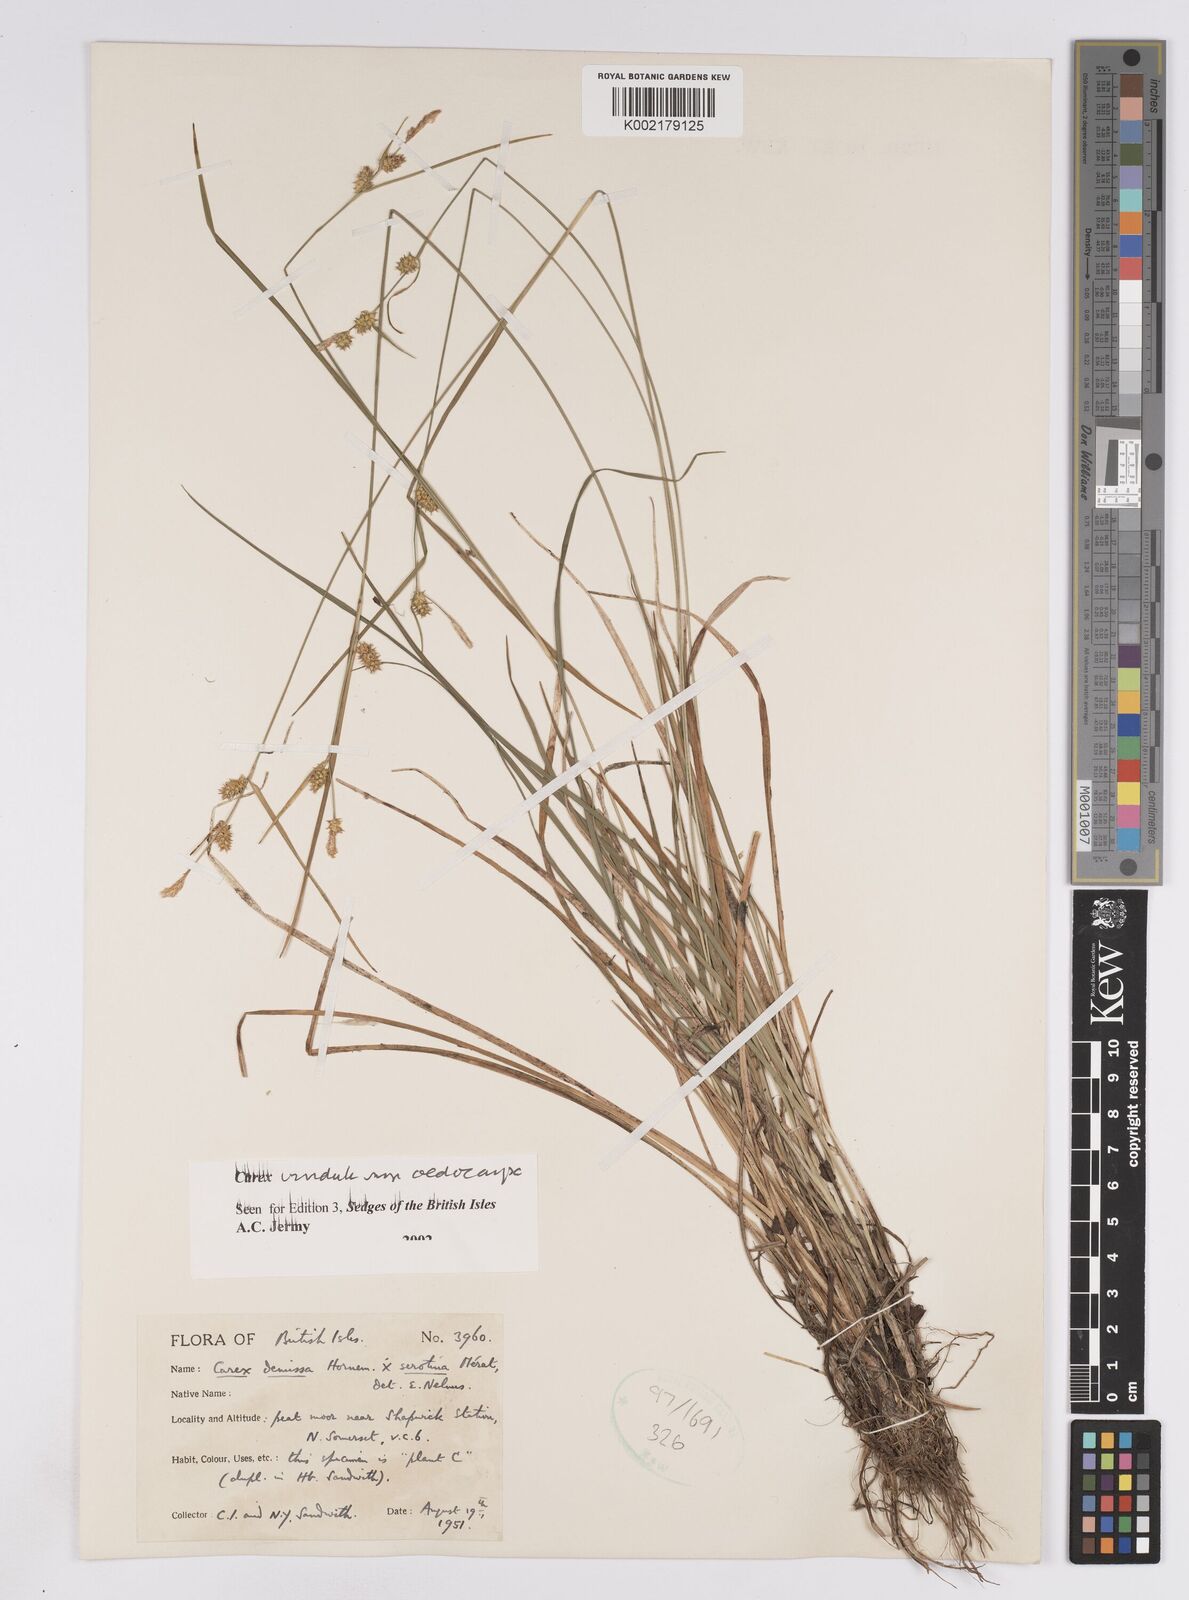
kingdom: Plantae
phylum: Tracheophyta
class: Liliopsida
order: Poales
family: Cyperaceae
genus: Carex
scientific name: Carex demissa
